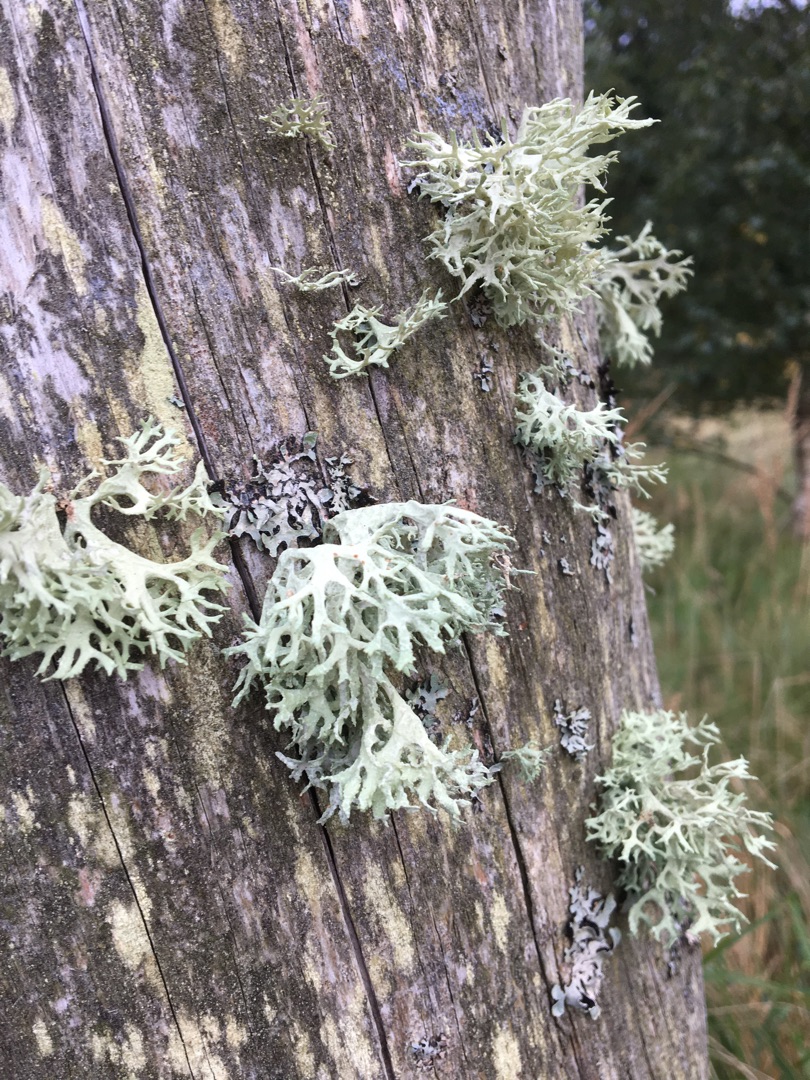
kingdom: Fungi
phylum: Ascomycota
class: Lecanoromycetes
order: Lecanorales
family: Parmeliaceae
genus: Evernia
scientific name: Evernia prunastri
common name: Almindelig slåenlav
